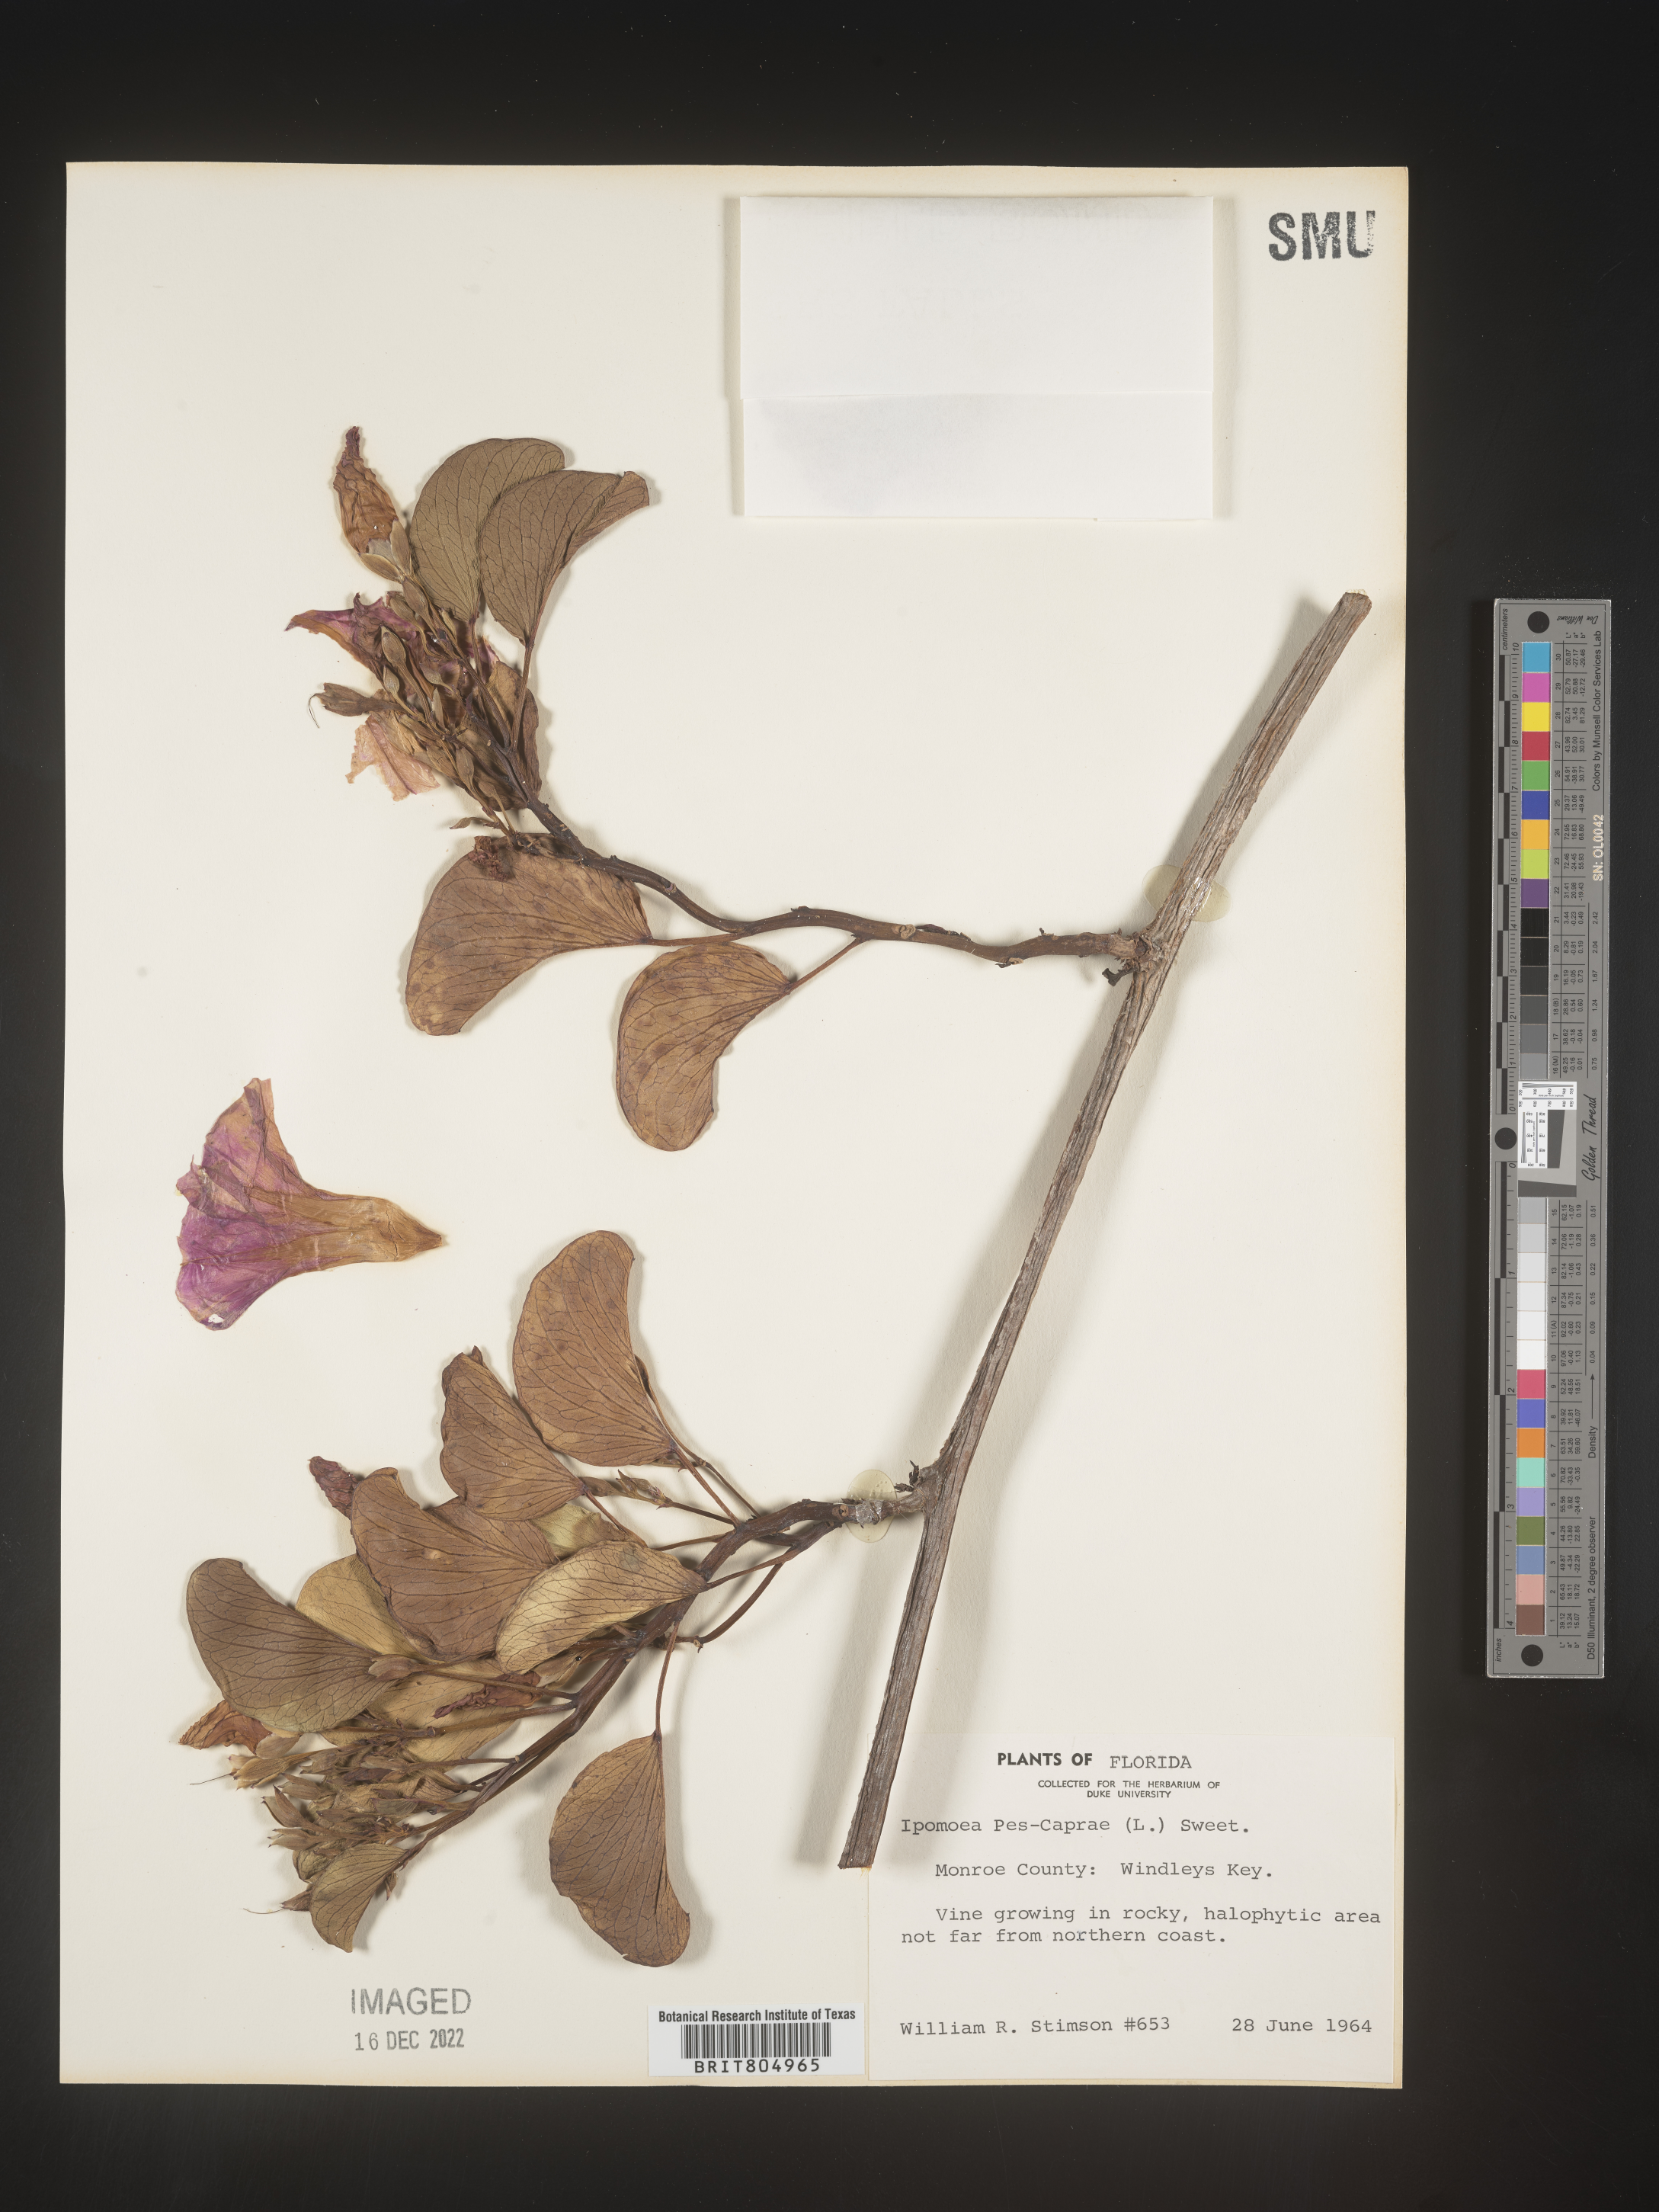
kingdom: Plantae
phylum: Tracheophyta
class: Magnoliopsida
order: Solanales
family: Convolvulaceae
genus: Ipomoea
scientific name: Ipomoea pes-caprae
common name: Beach morning glory
